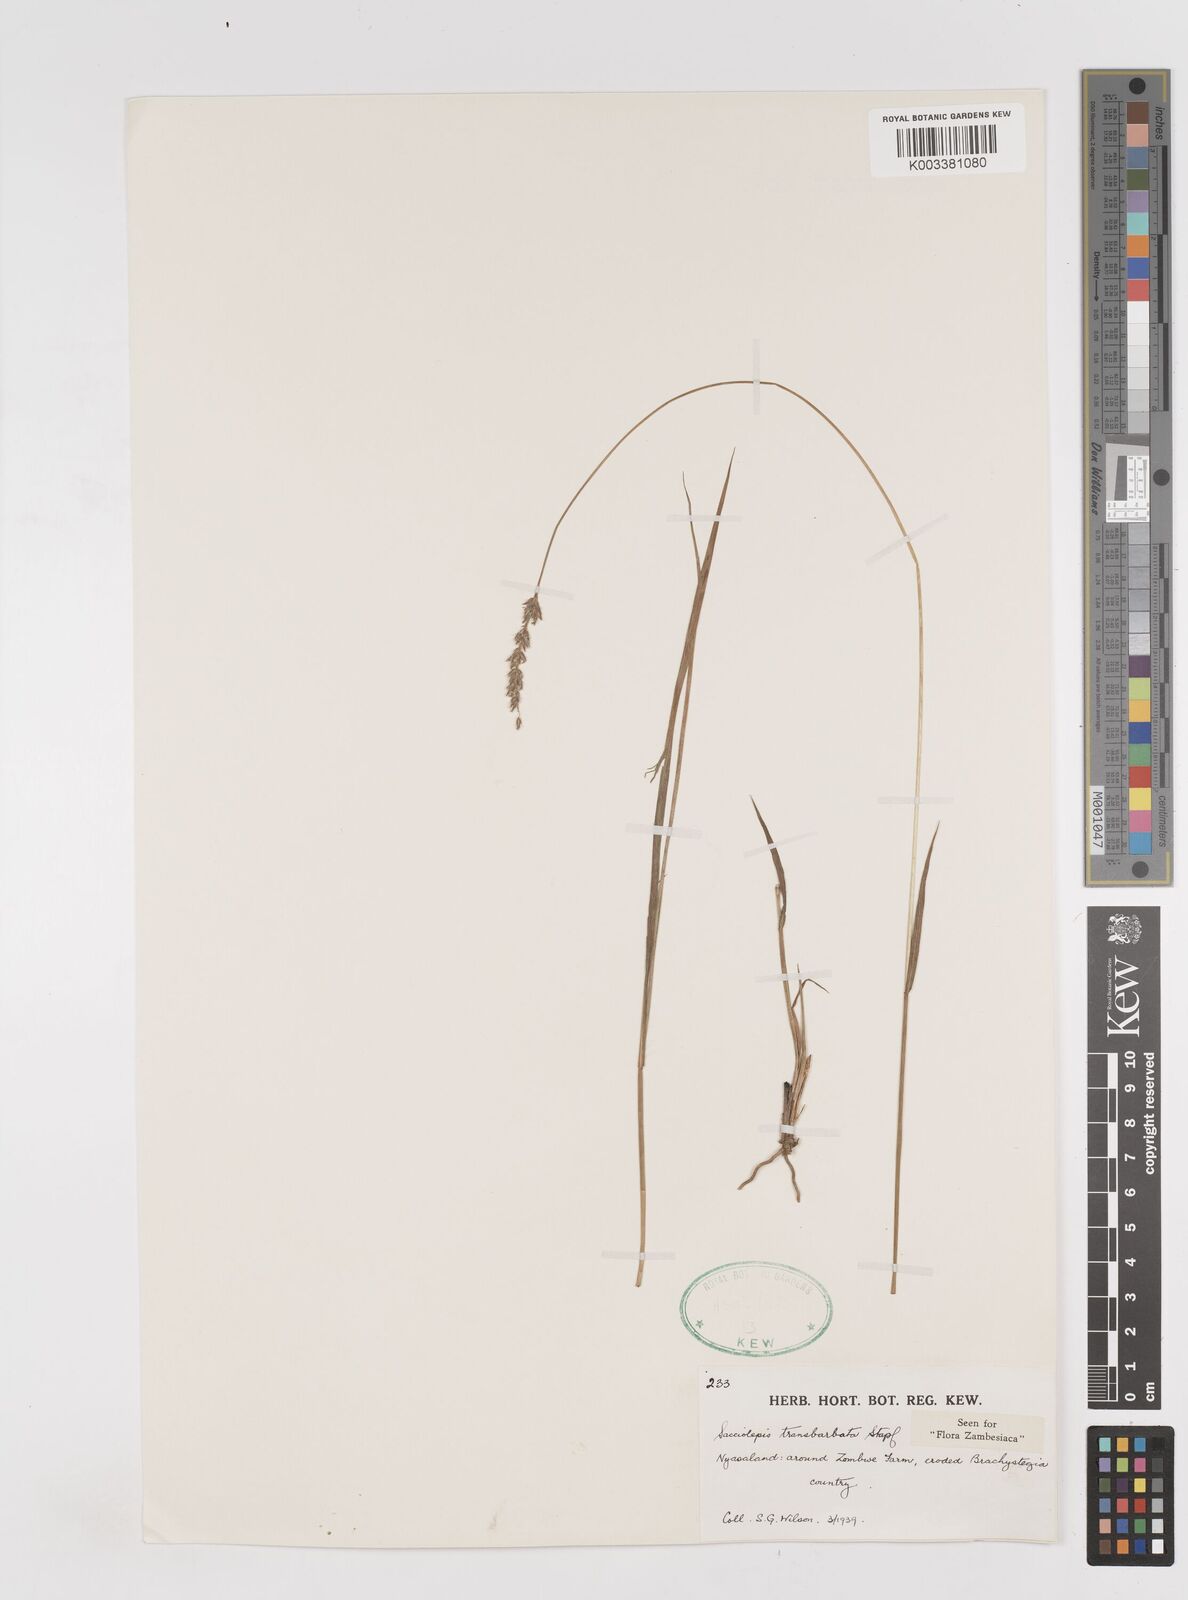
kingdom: Plantae
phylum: Tracheophyta
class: Liliopsida
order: Poales
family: Poaceae
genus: Sacciolepis
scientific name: Sacciolepis transbarbata
